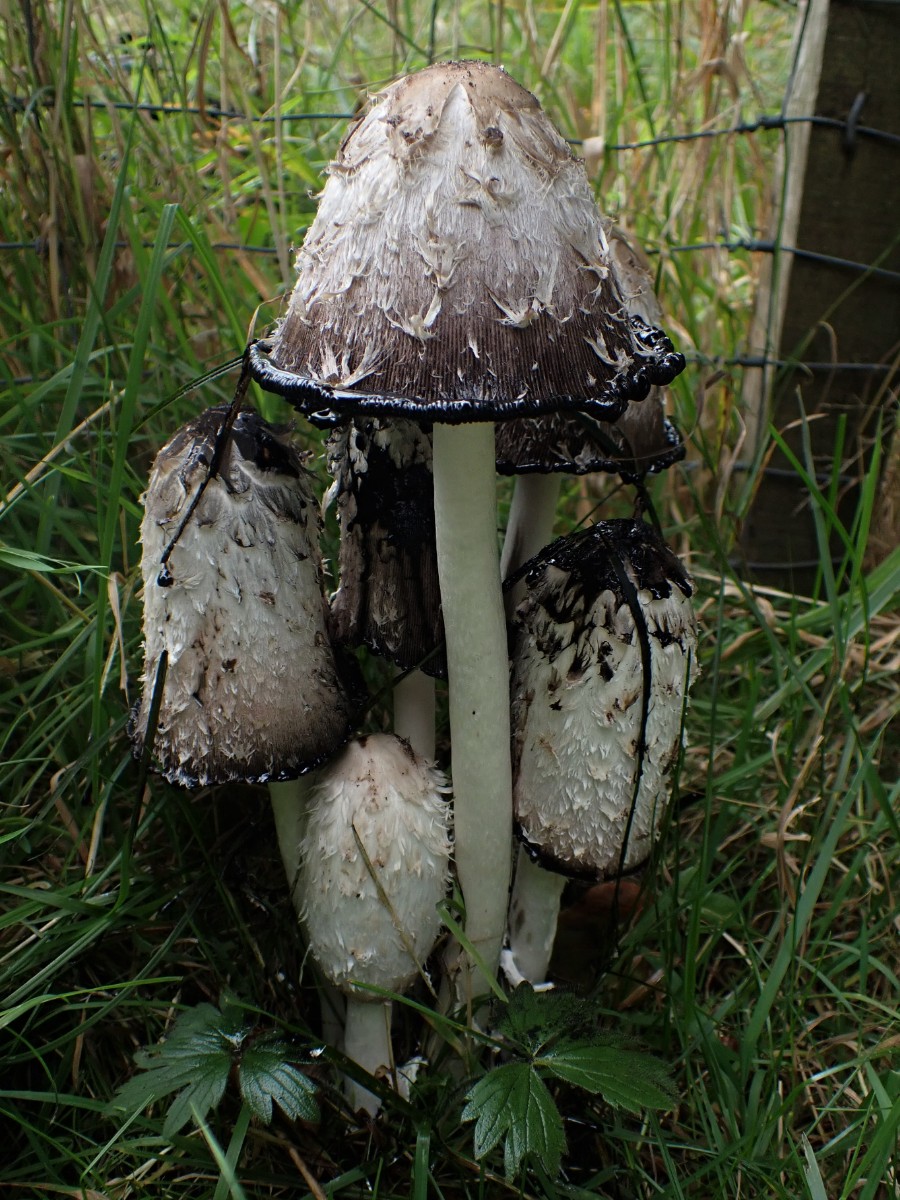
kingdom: Fungi
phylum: Basidiomycota
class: Agaricomycetes
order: Agaricales
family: Agaricaceae
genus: Coprinus
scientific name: Coprinus comatus
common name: stor parykhat
